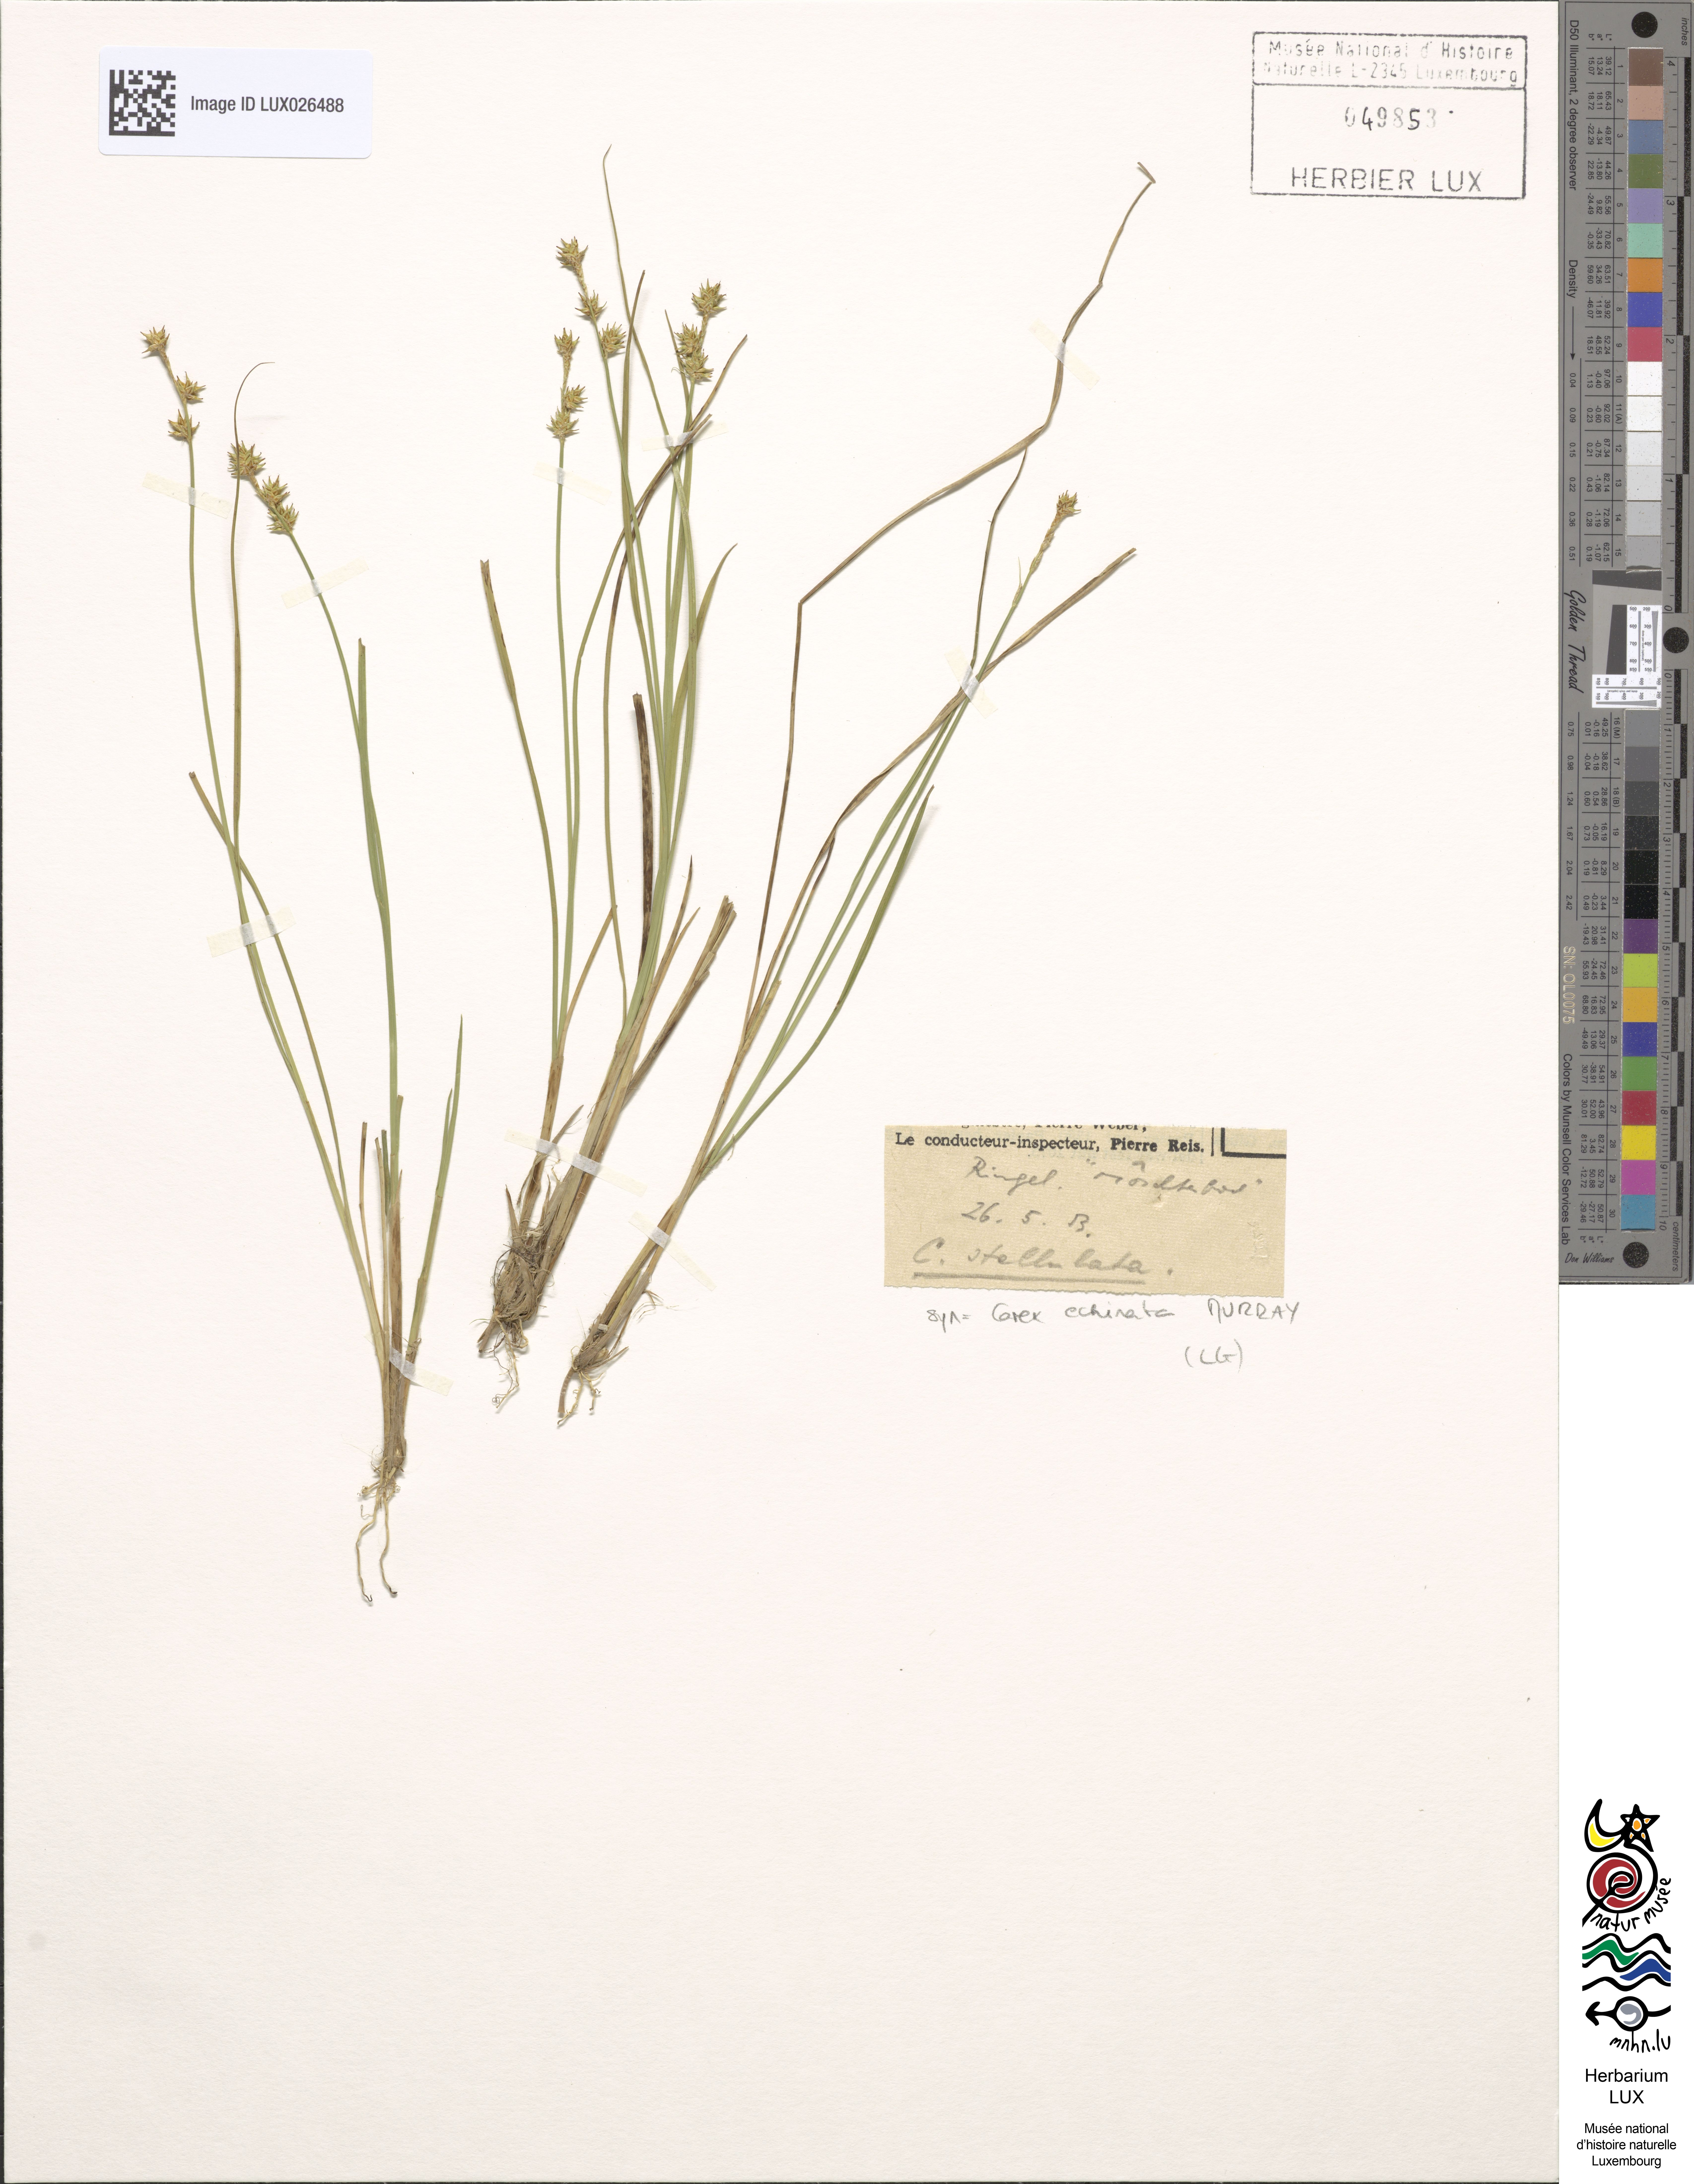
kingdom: Plantae
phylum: Tracheophyta
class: Liliopsida
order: Poales
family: Cyperaceae
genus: Carex
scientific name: Carex echinata
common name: Star sedge
